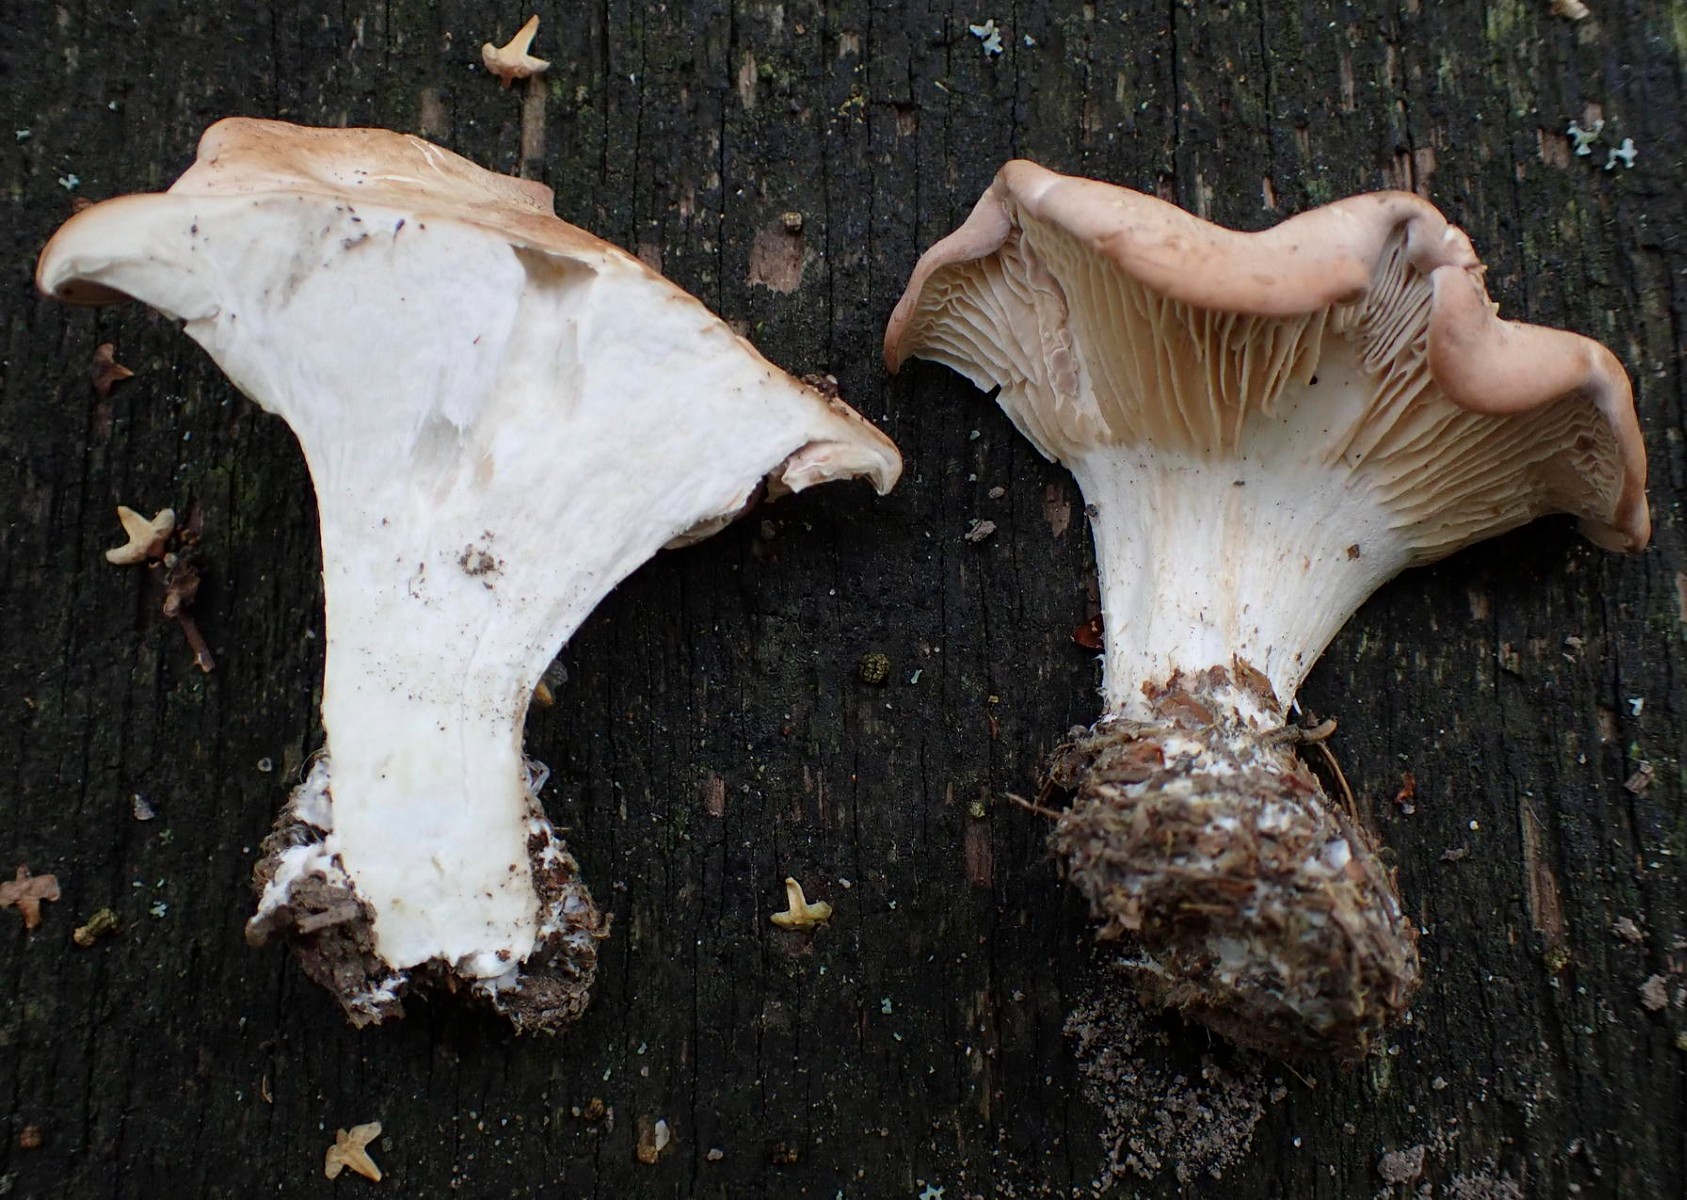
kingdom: Fungi
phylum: Basidiomycota
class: Agaricomycetes
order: Agaricales
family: Entolomataceae
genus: Clitopilus
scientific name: Clitopilus geminus
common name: kødfarvet troldhat
